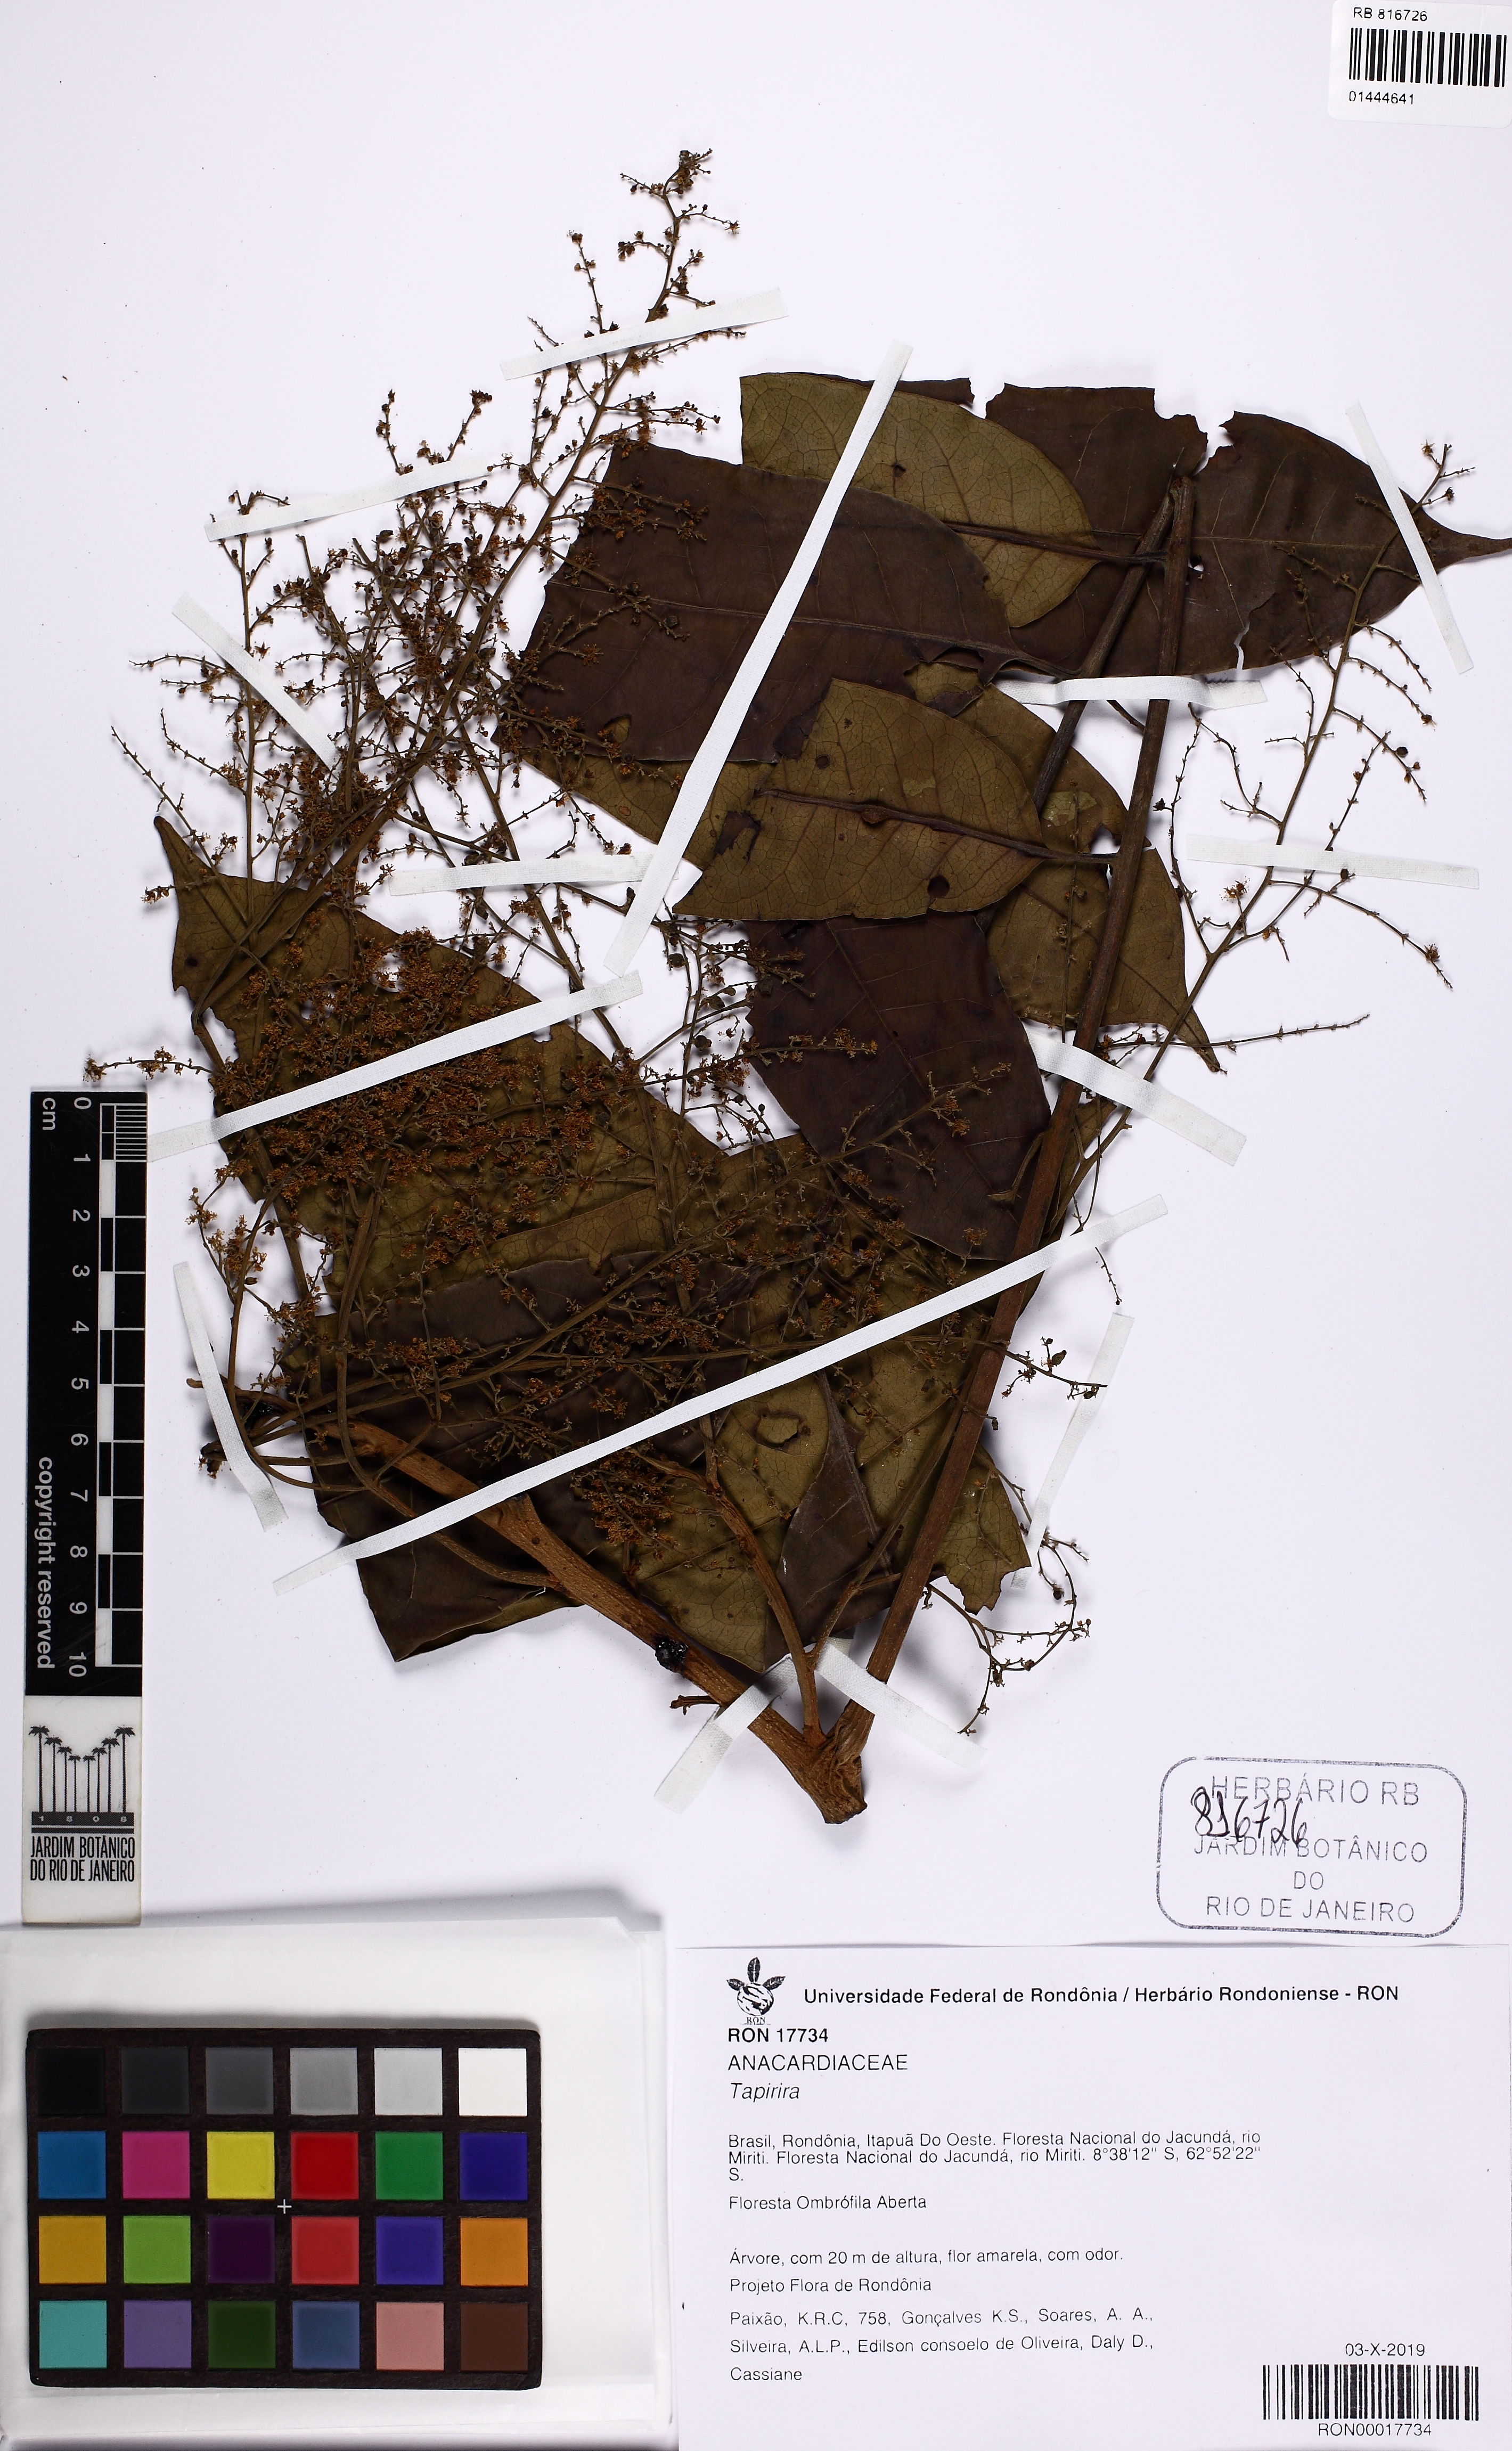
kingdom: Plantae
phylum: Tracheophyta
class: Magnoliopsida
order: Sapindales
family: Anacardiaceae
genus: Tapirira
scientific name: Tapirira
